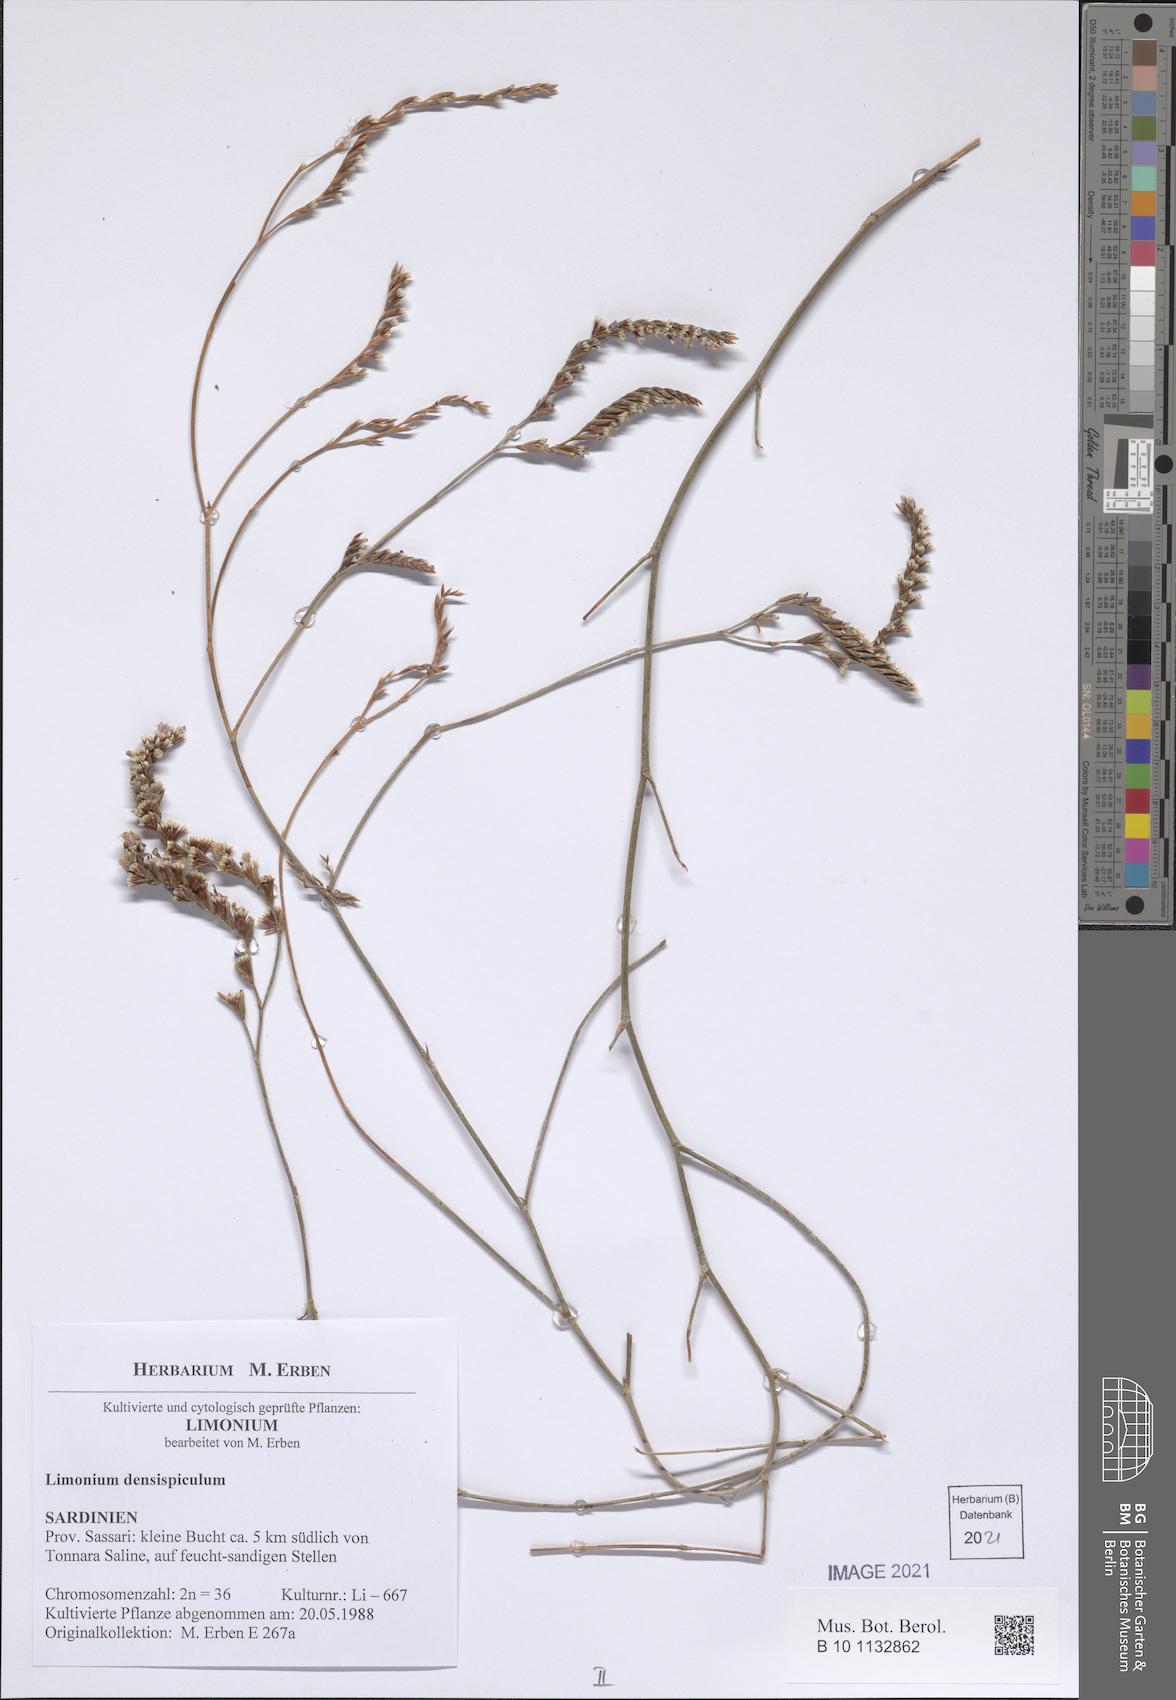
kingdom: Plantae
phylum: Tracheophyta
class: Magnoliopsida
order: Caryophyllales
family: Plumbaginaceae
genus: Limonium
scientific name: Limonium
